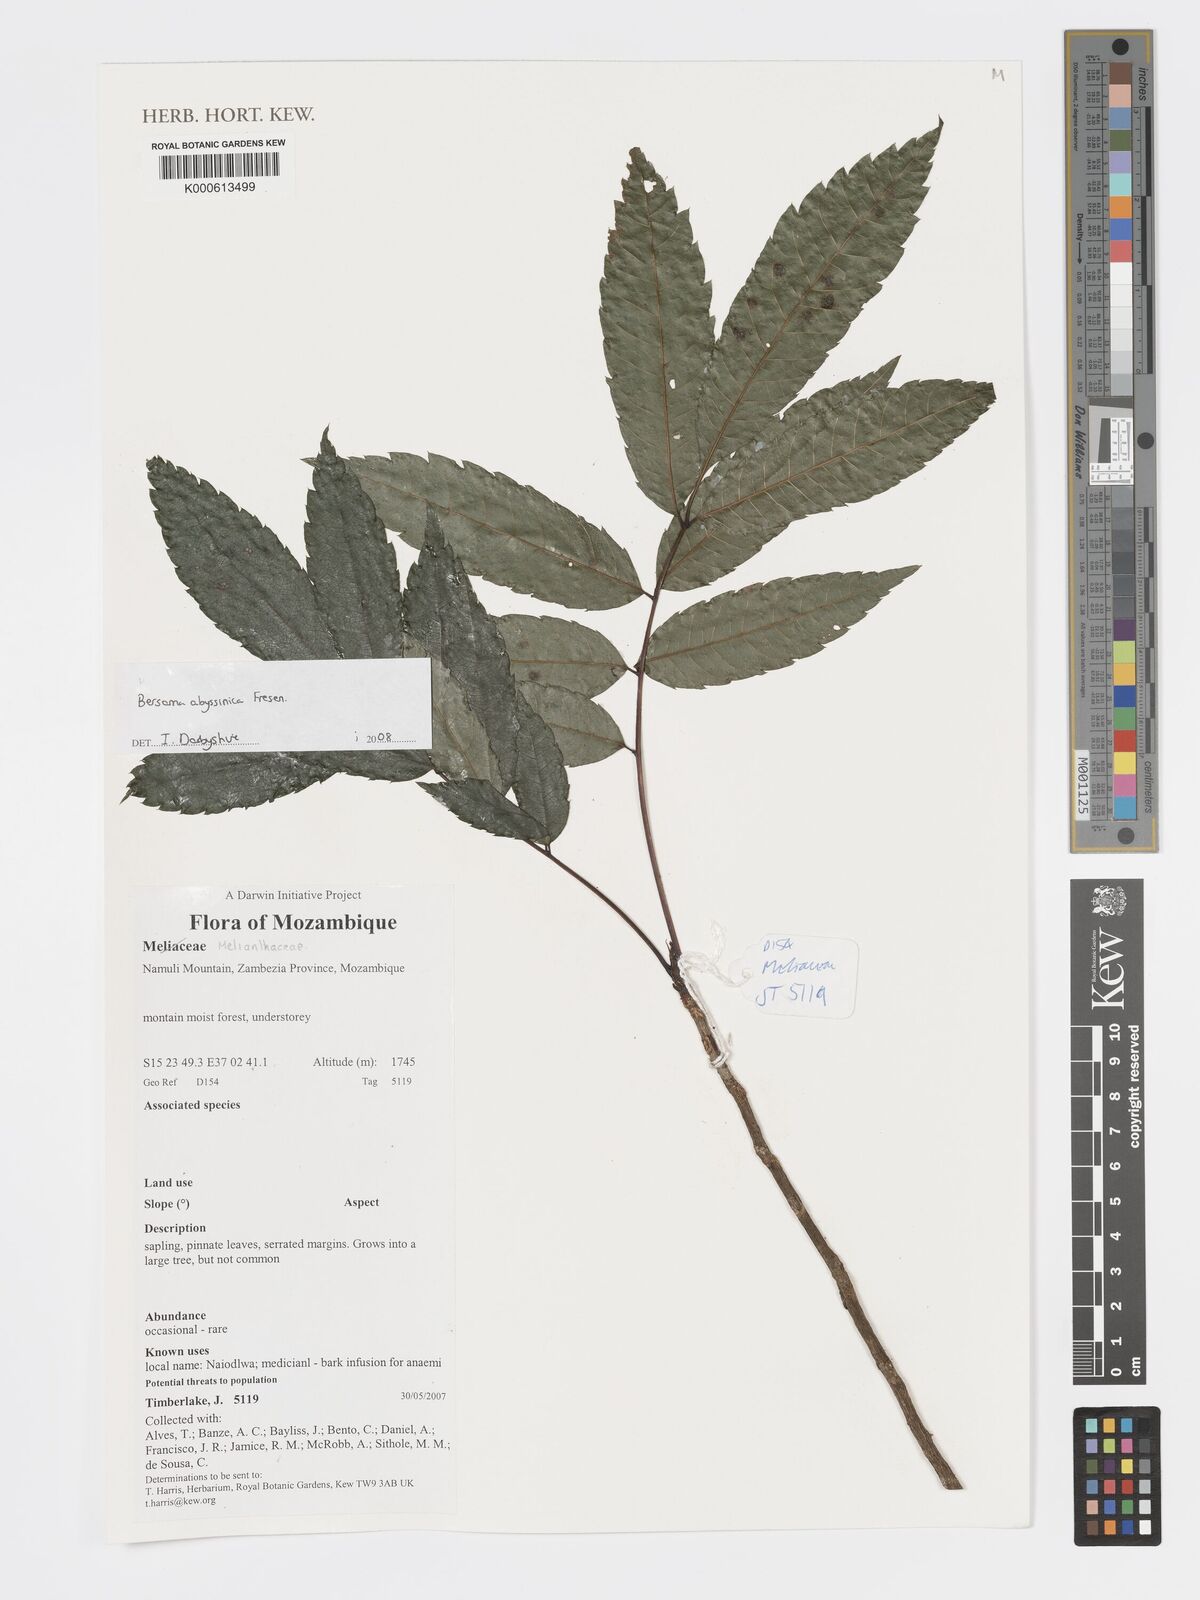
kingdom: Plantae
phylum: Tracheophyta
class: Magnoliopsida
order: Geraniales
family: Melianthaceae
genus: Bersama
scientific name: Bersama abyssinica
